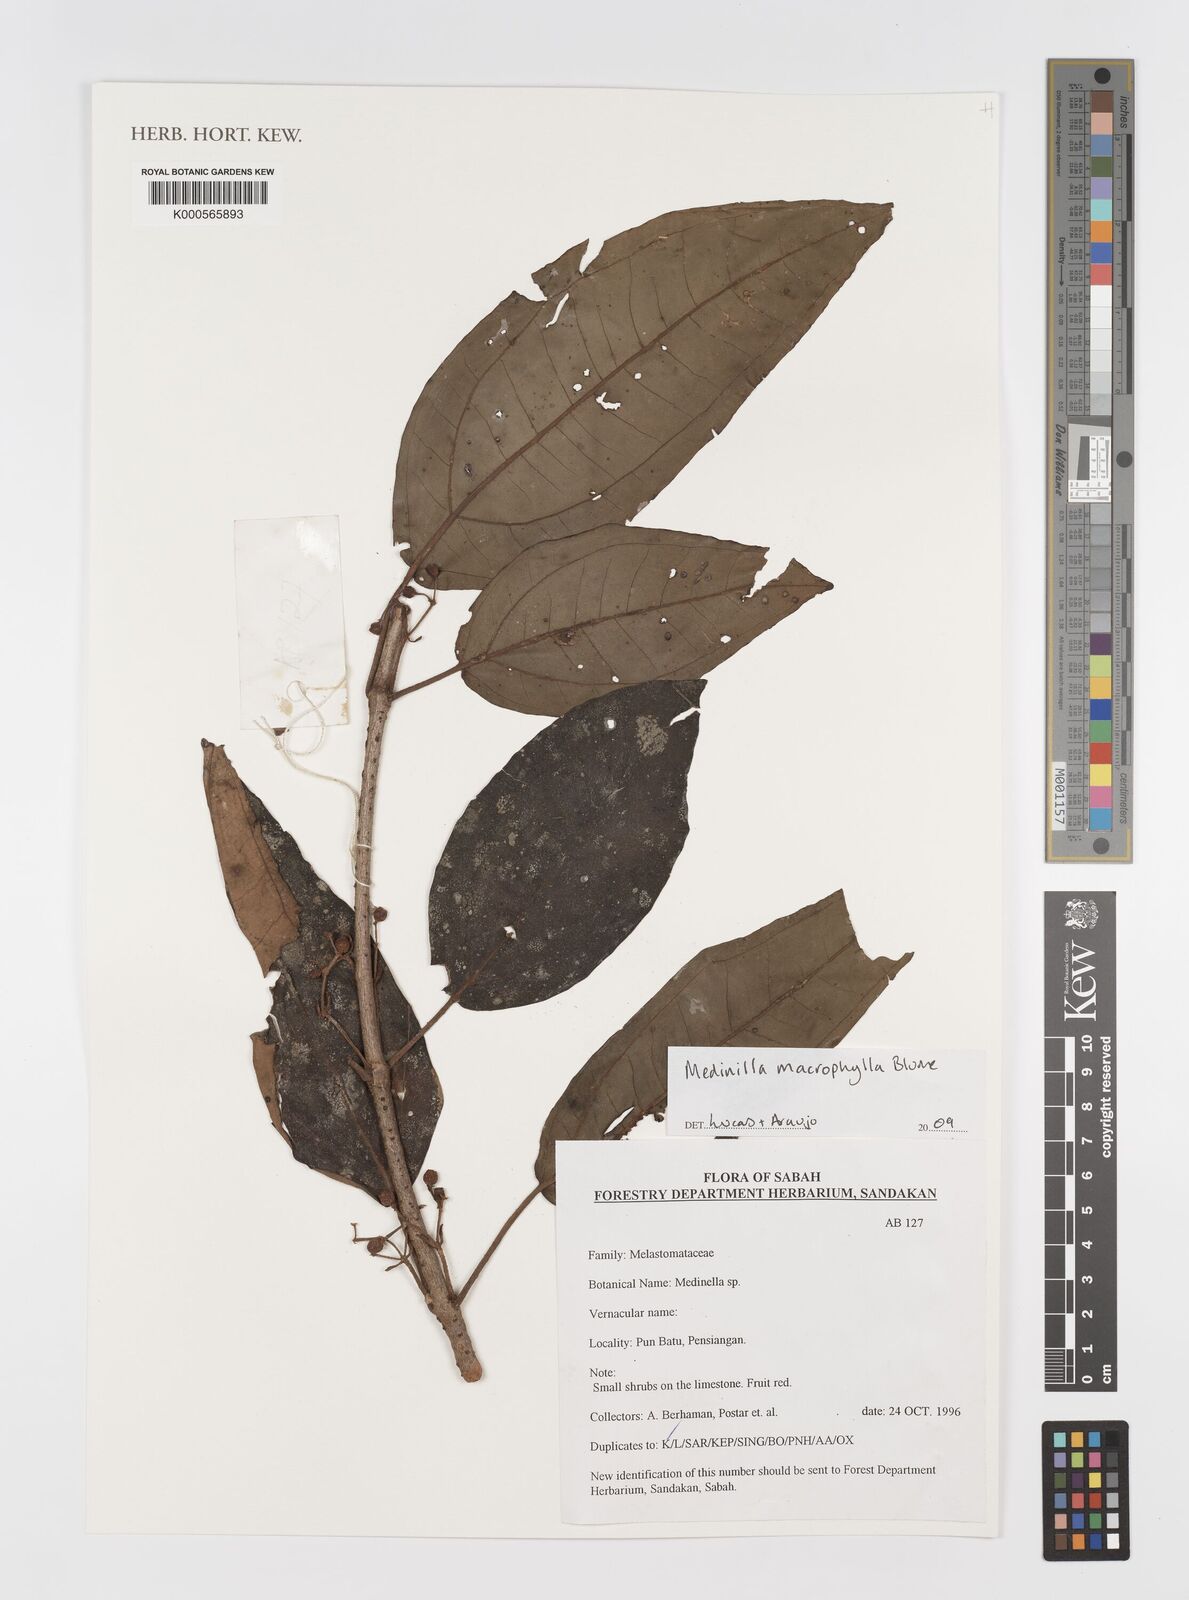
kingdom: Plantae
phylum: Tracheophyta
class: Magnoliopsida
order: Myrtales
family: Melastomataceae
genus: Medinilla
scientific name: Medinilla macrophylla
